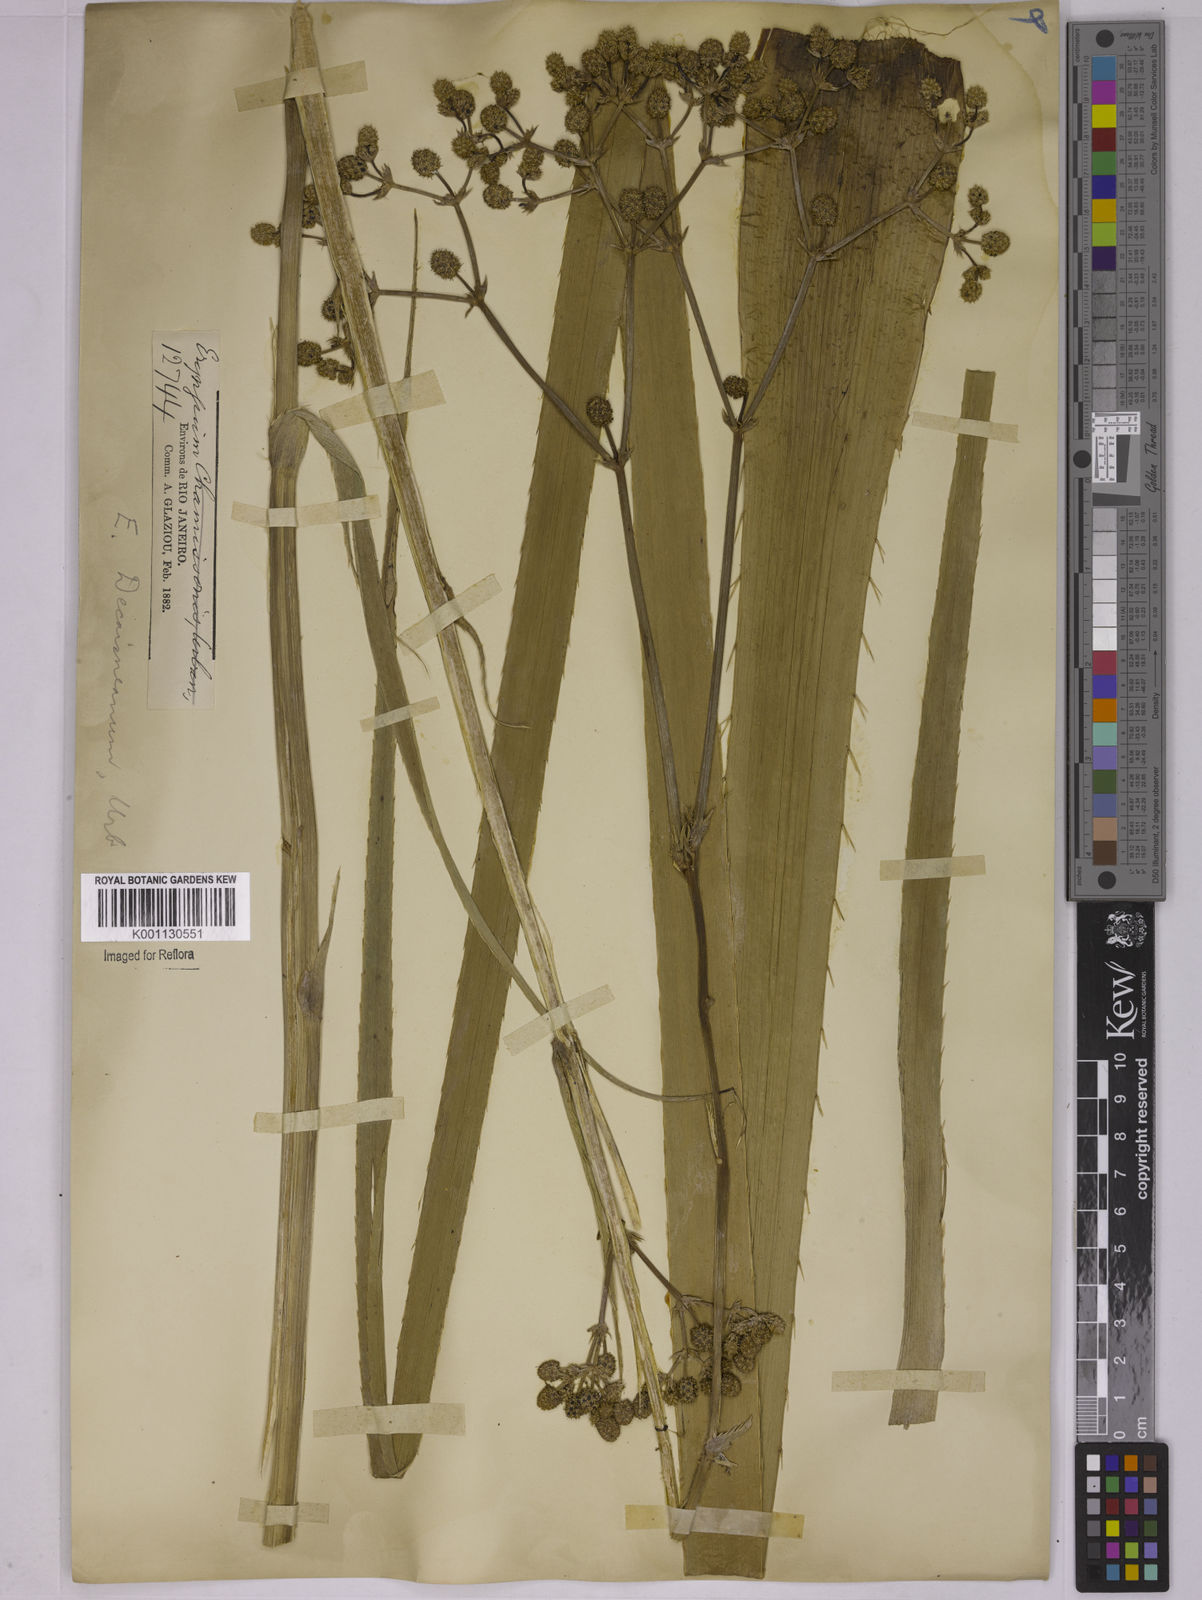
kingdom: Plantae
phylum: Tracheophyta
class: Magnoliopsida
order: Apiales
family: Apiaceae
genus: Eryngium
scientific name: Eryngium pandanifolium
